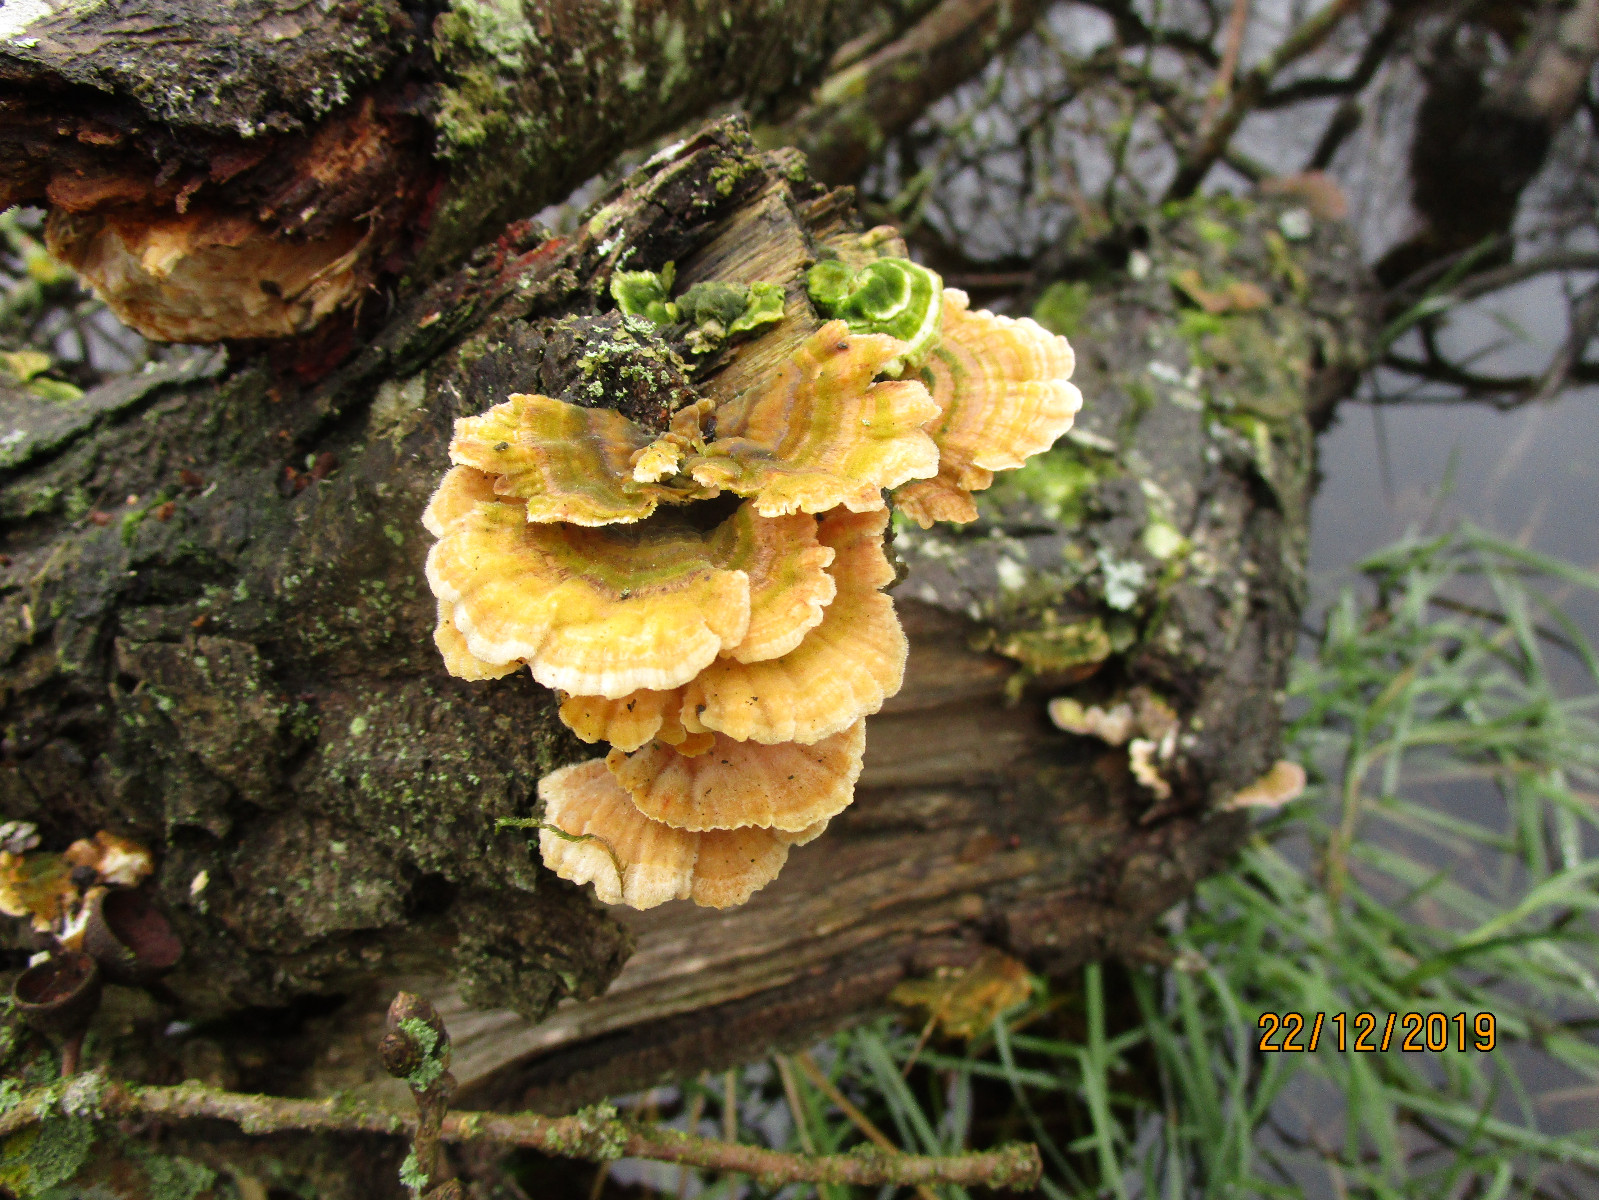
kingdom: Fungi
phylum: Basidiomycota
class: Agaricomycetes
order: Russulales
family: Stereaceae
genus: Stereum
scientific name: Stereum subtomentosum
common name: smuk lædersvamp
